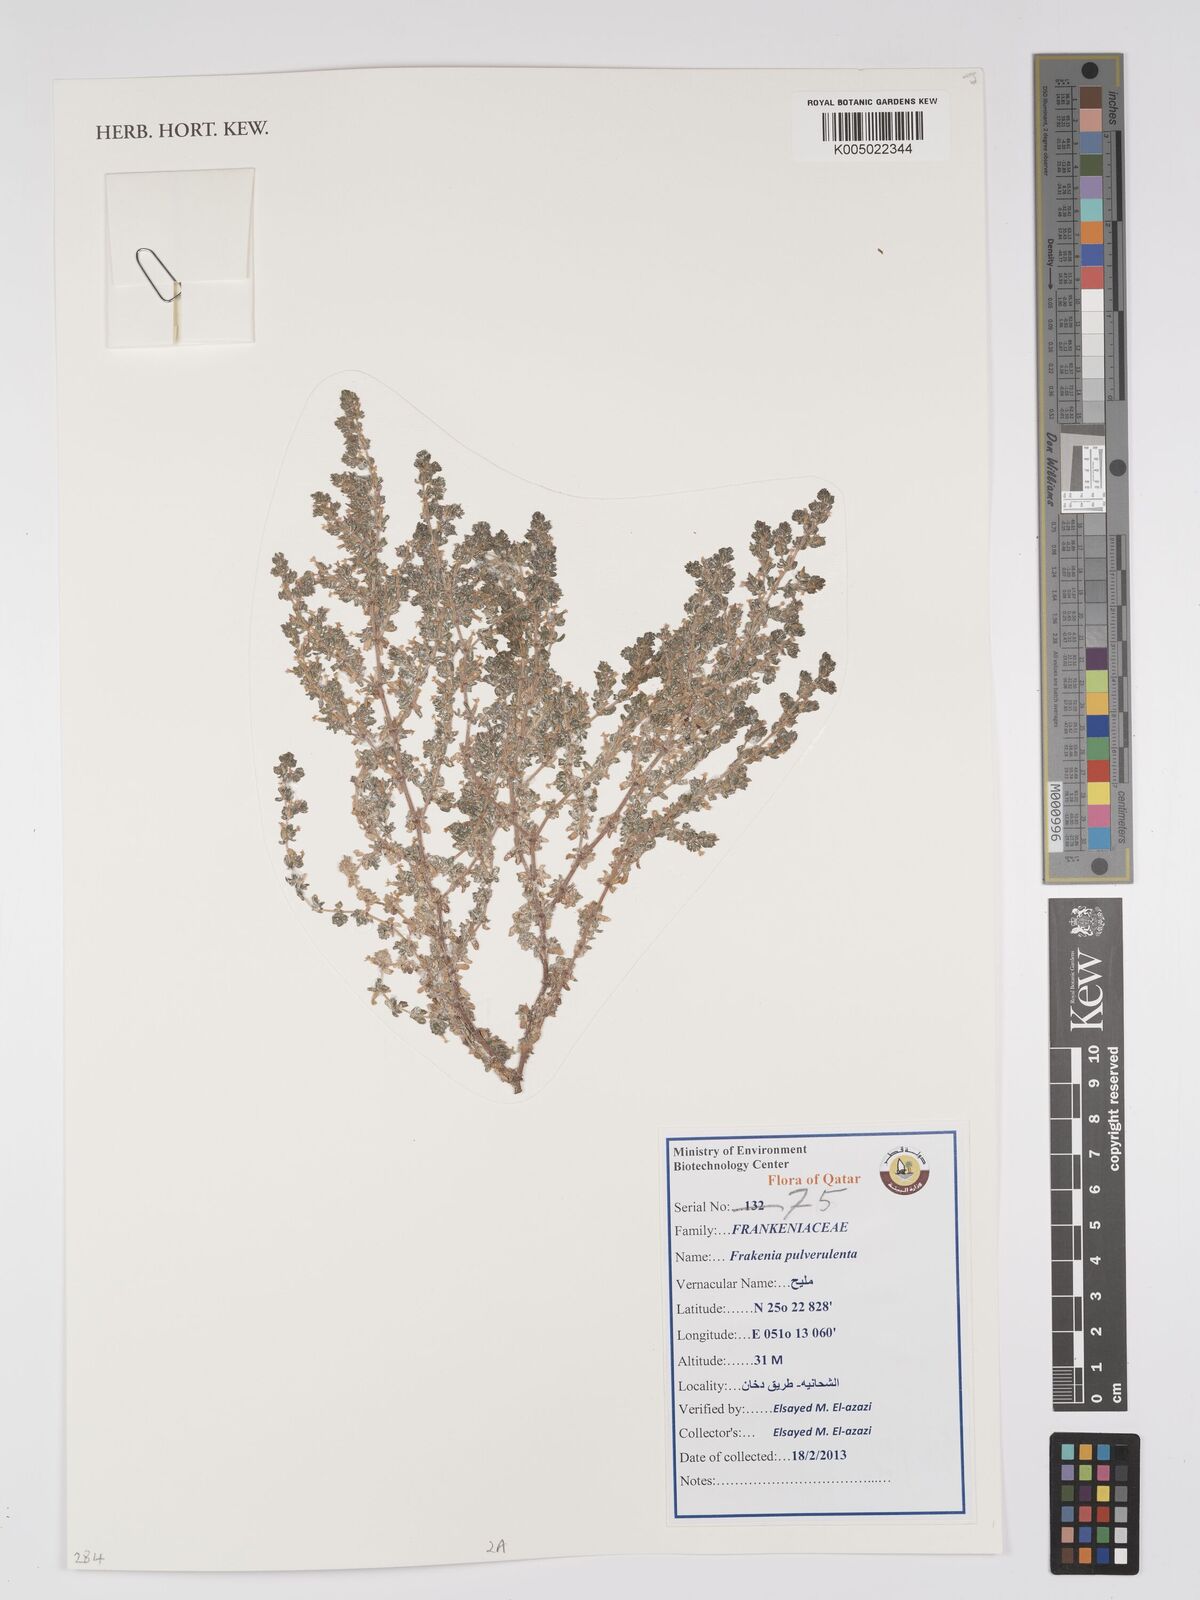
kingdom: Plantae
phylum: Tracheophyta
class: Magnoliopsida
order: Caryophyllales
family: Frankeniaceae
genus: Frankenia
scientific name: Frankenia pulverulenta
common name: European seaheath
